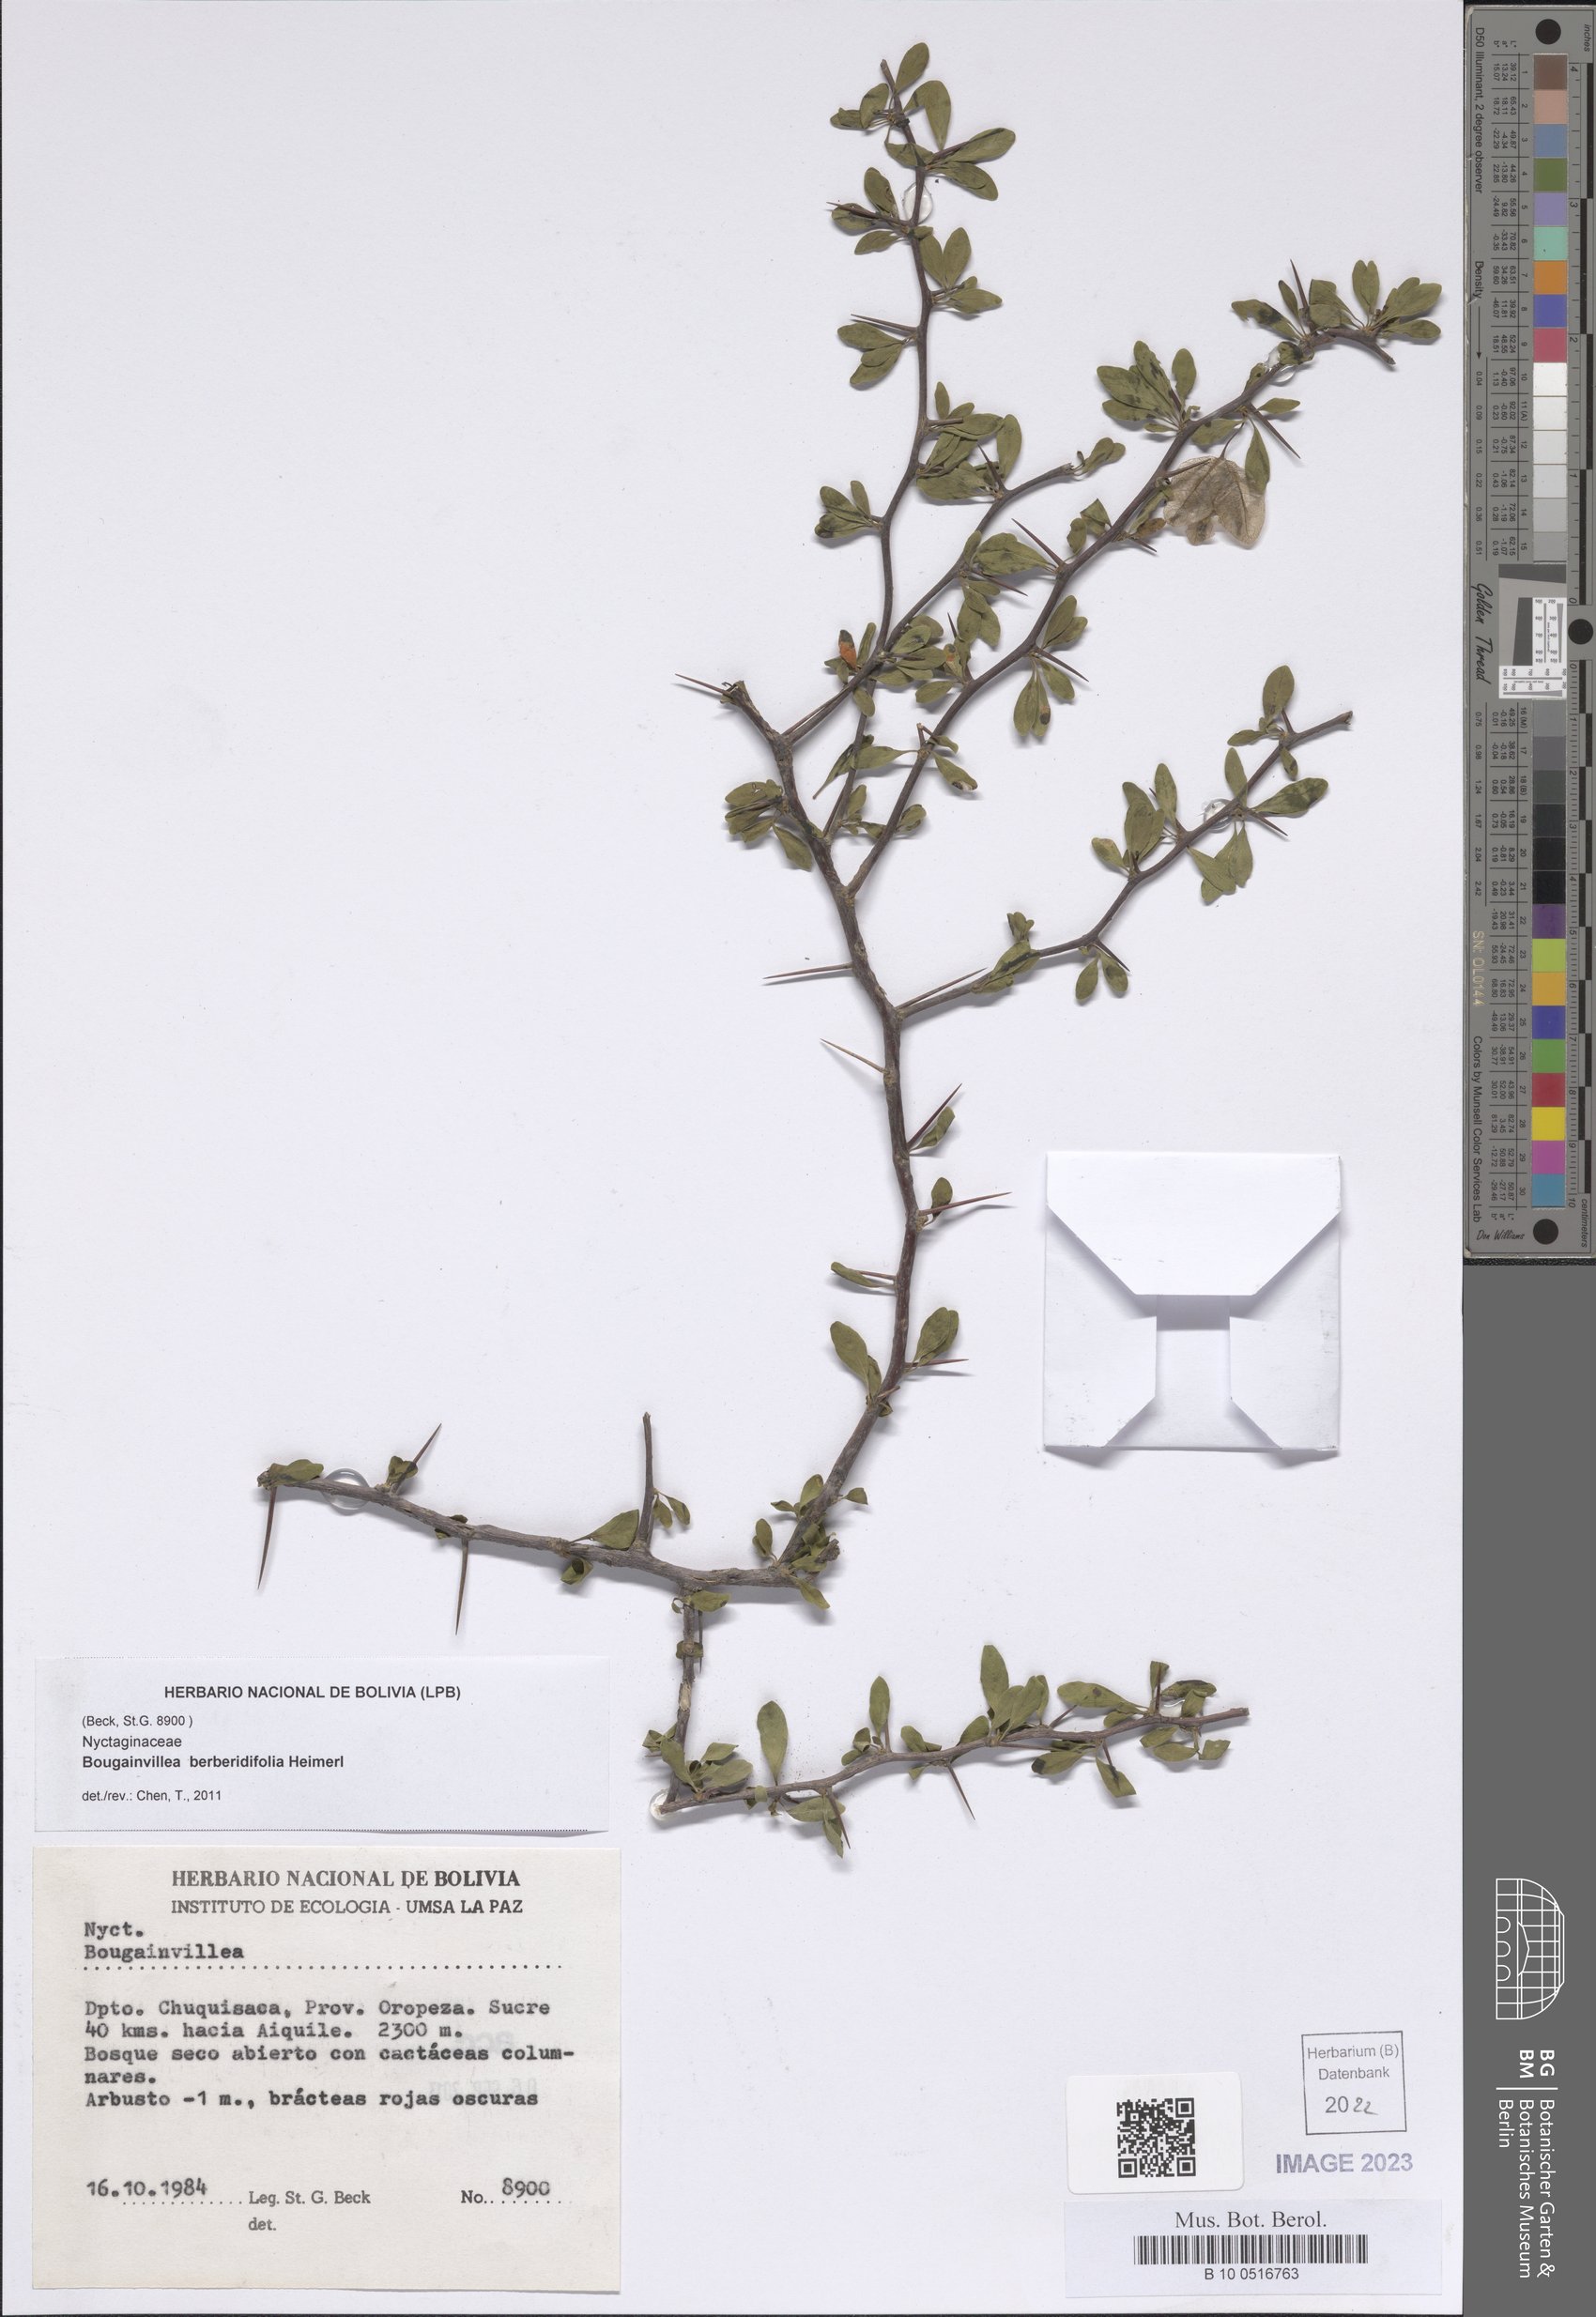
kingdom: Plantae
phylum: Tracheophyta
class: Magnoliopsida
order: Caryophyllales
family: Nyctaginaceae
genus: Bougainvillea
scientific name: Bougainvillea berberidifolia
